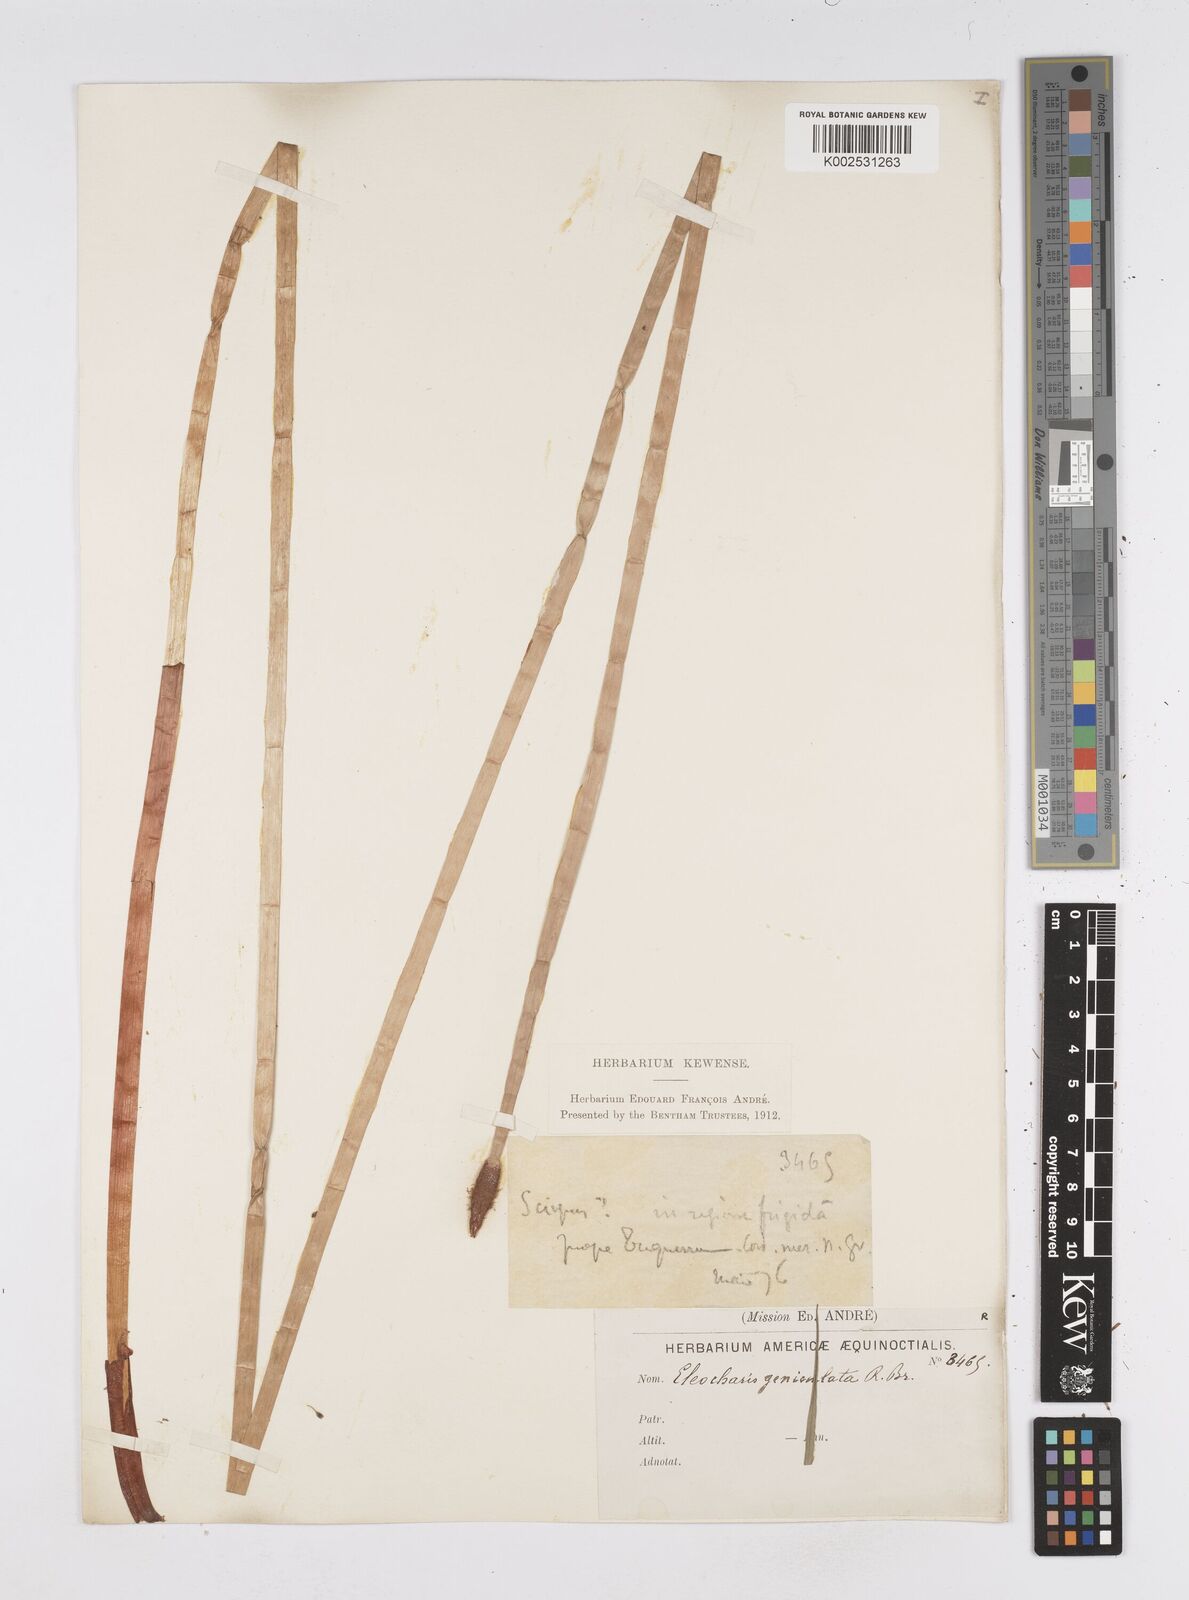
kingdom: Plantae
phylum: Tracheophyta
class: Liliopsida
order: Poales
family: Cyperaceae
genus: Eleocharis
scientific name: Eleocharis elegans
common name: Elegant spike-rush
